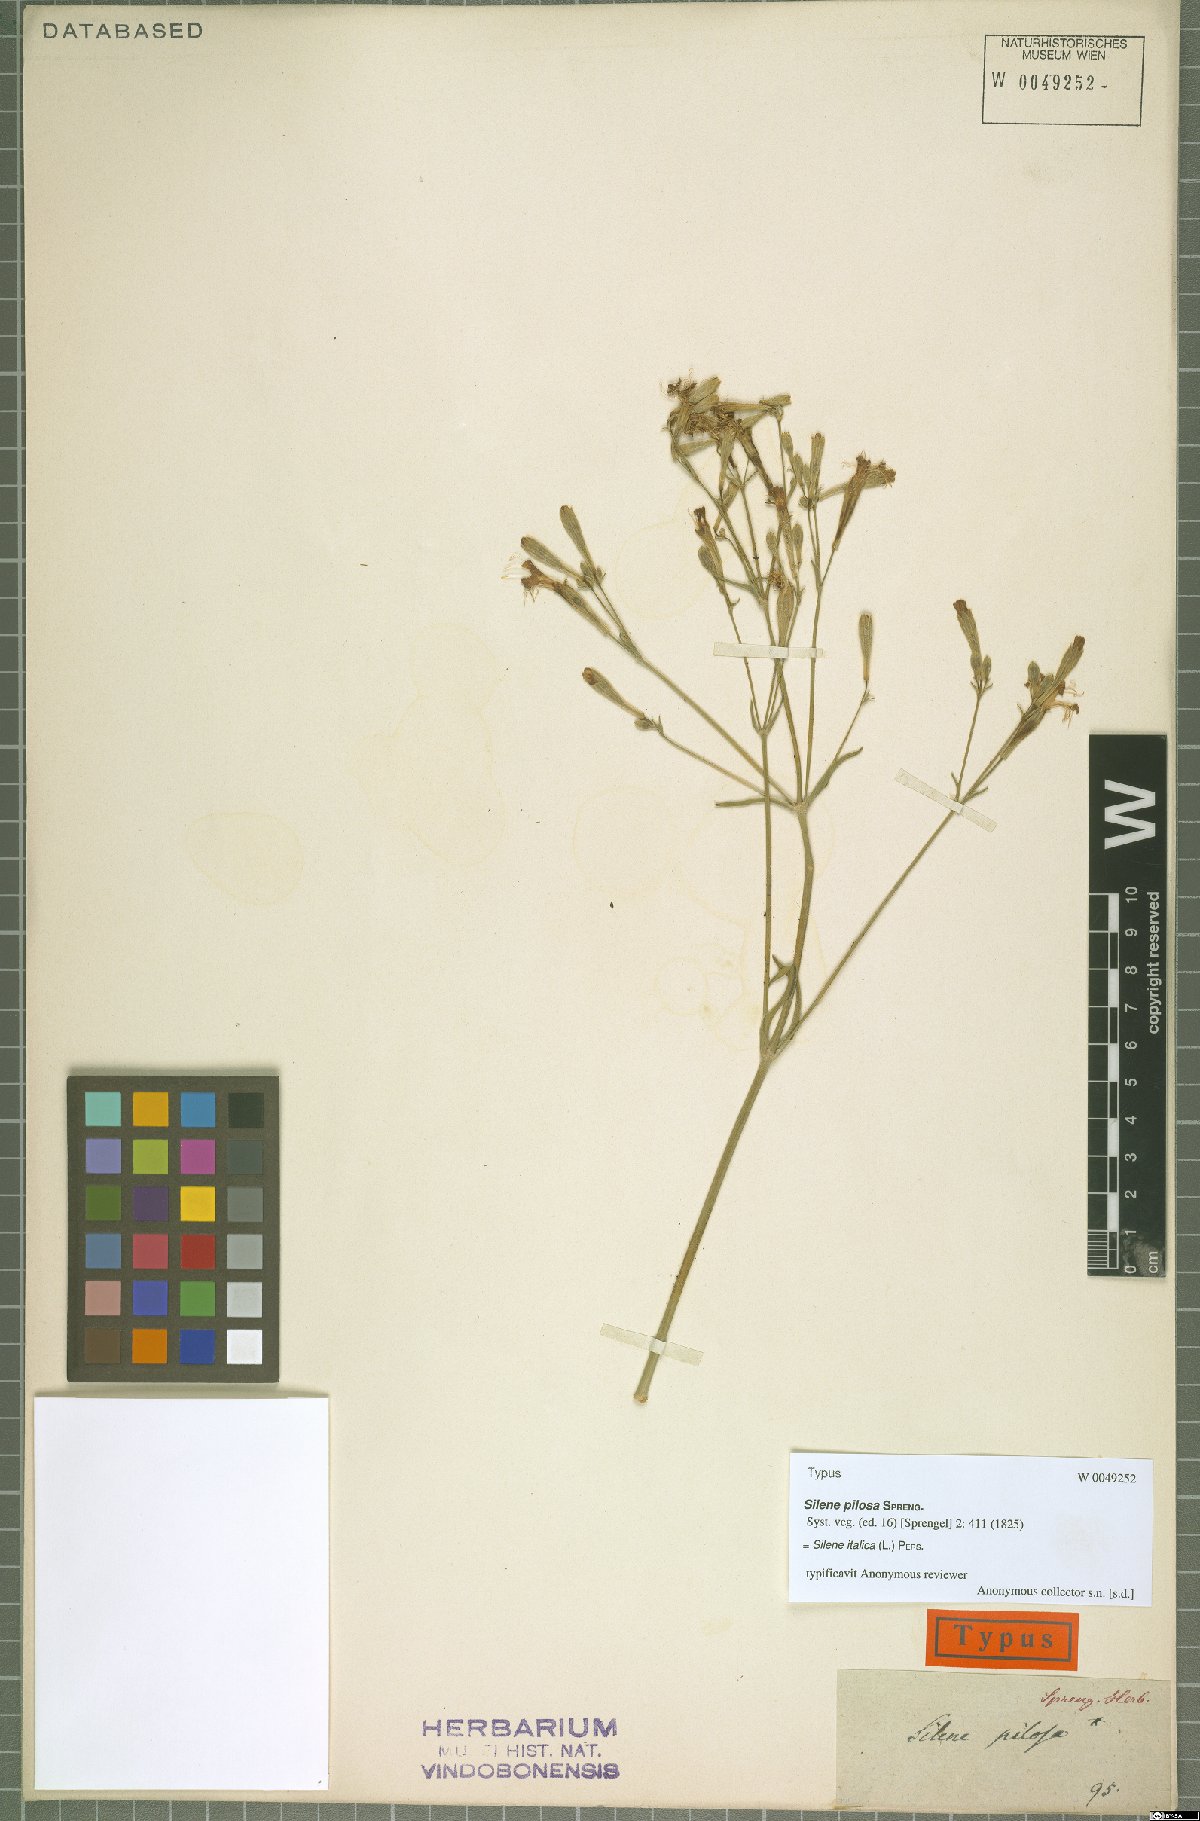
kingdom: Plantae
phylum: Tracheophyta
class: Magnoliopsida
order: Caryophyllales
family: Caryophyllaceae
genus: Silene
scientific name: Silene italica
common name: Italian catchfly
